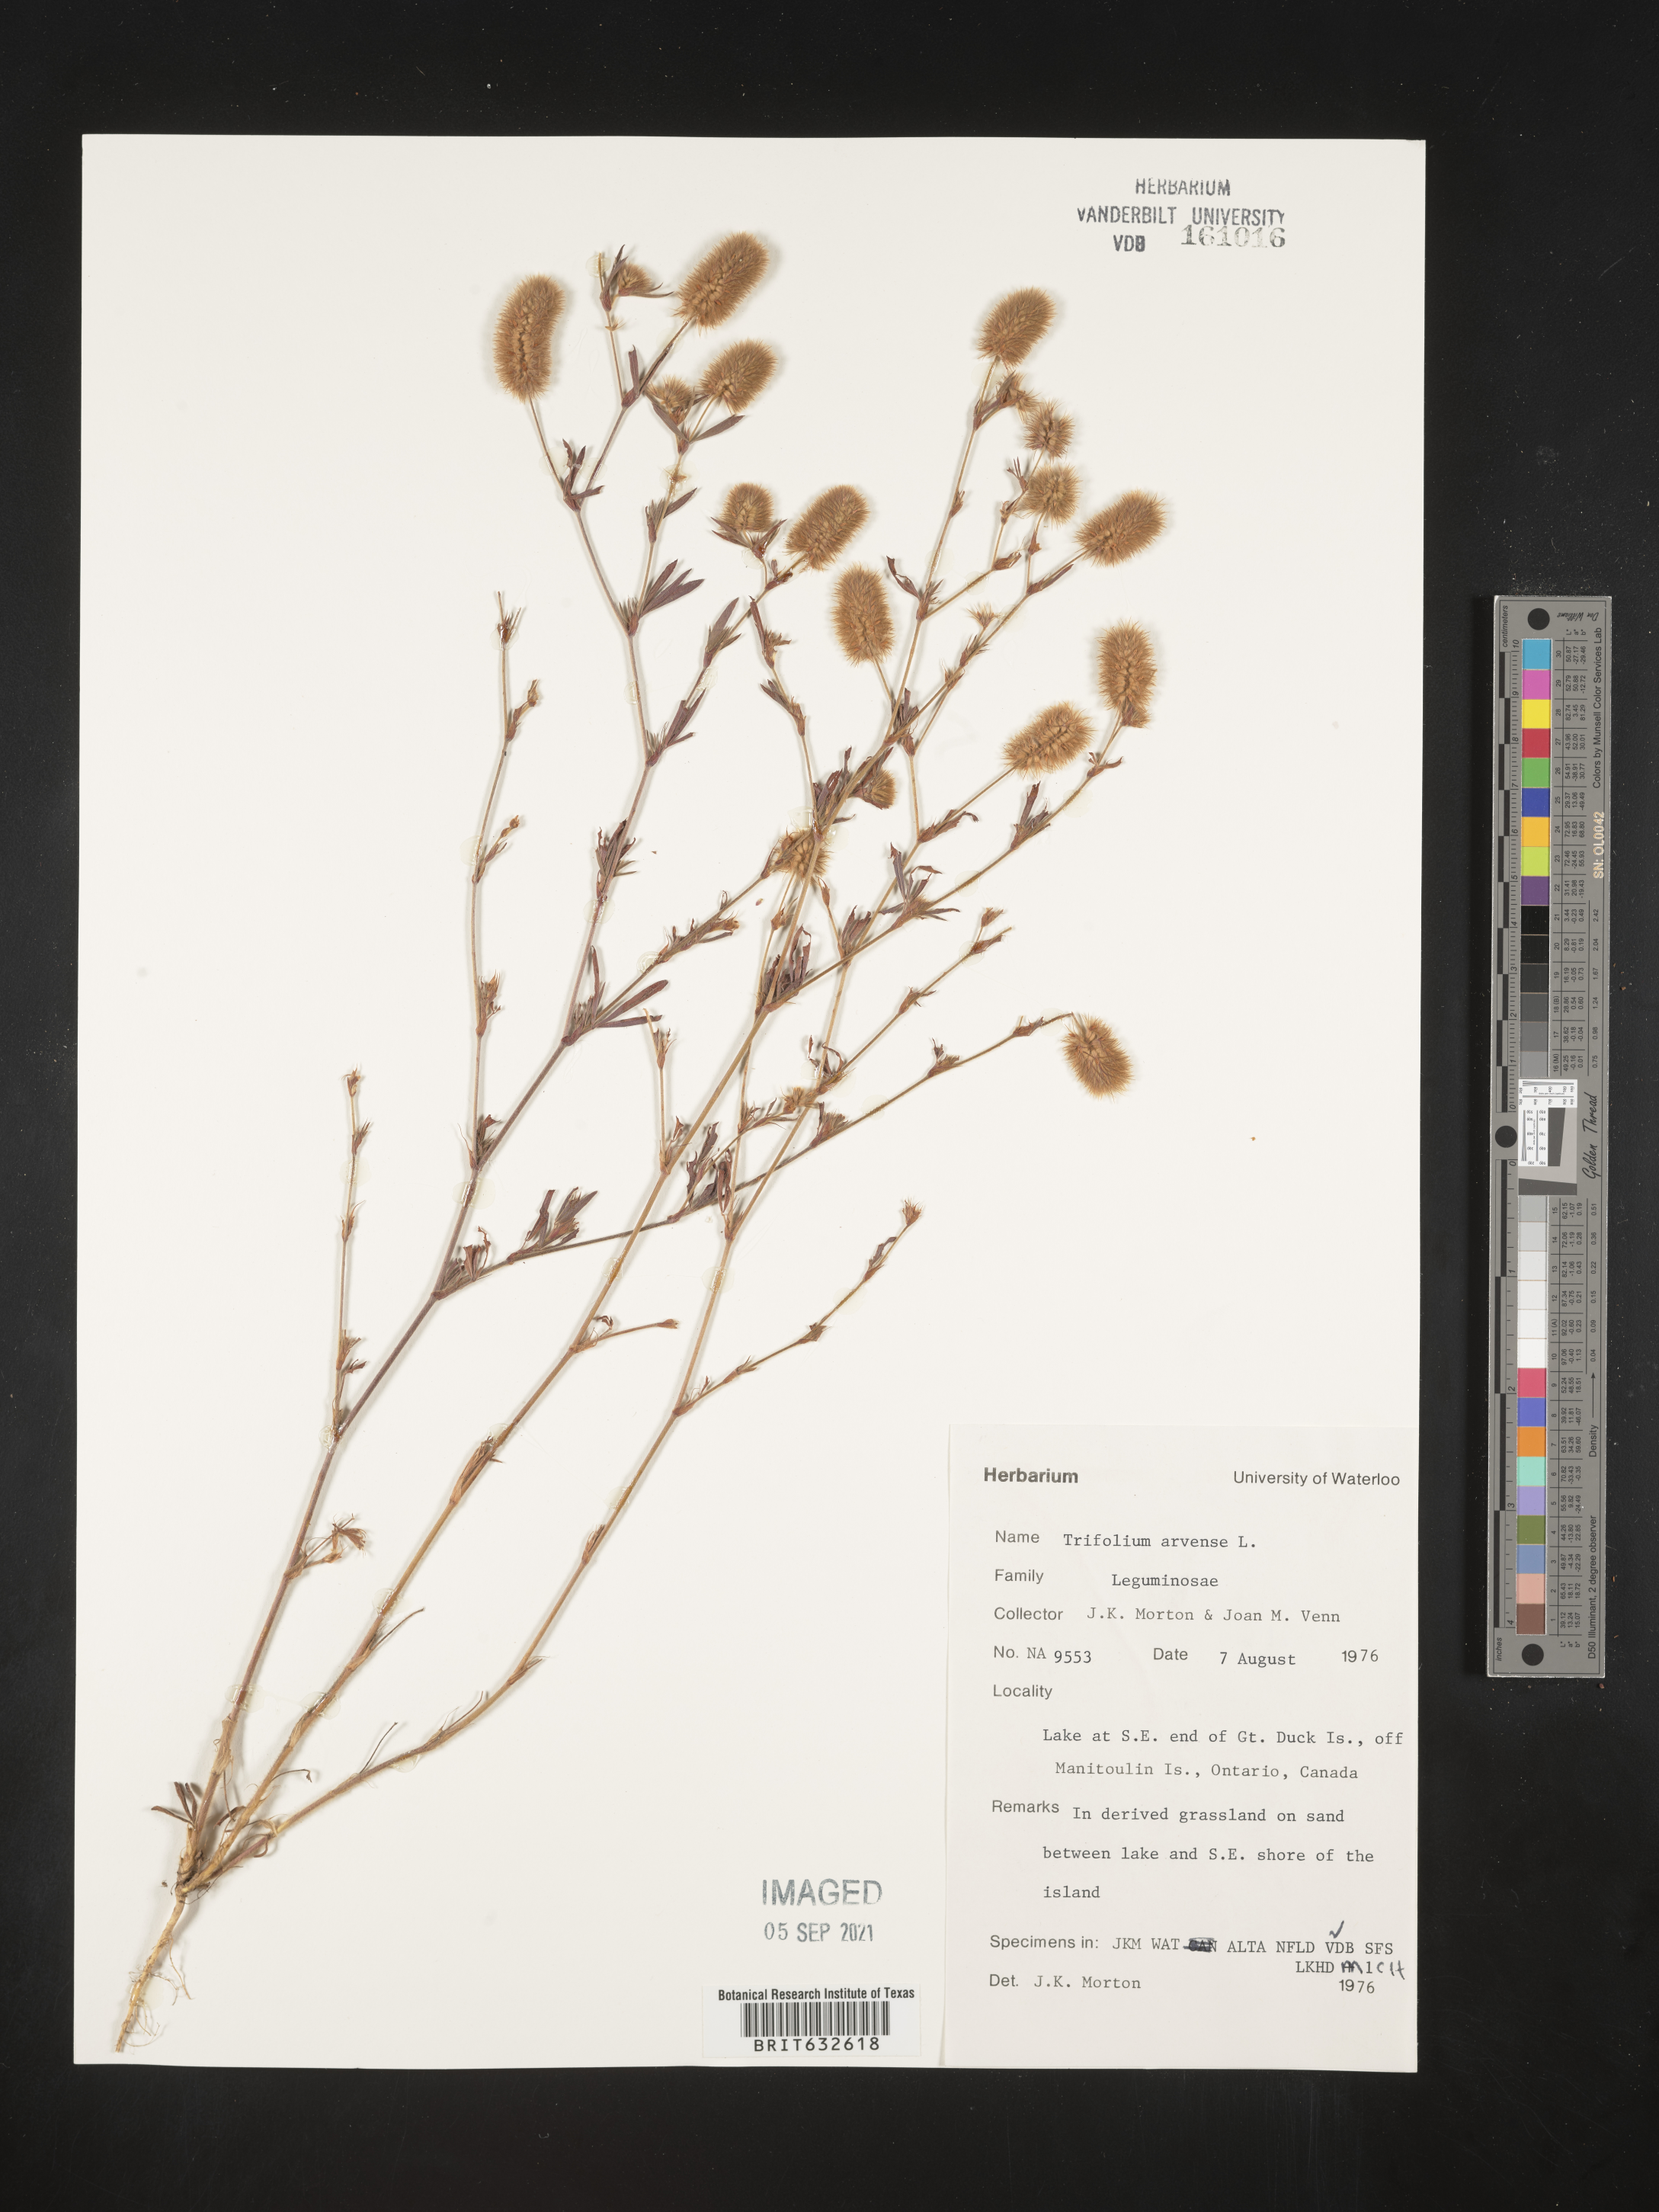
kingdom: Plantae
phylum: Tracheophyta
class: Magnoliopsida
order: Fabales
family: Fabaceae
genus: Trifolium
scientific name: Trifolium
